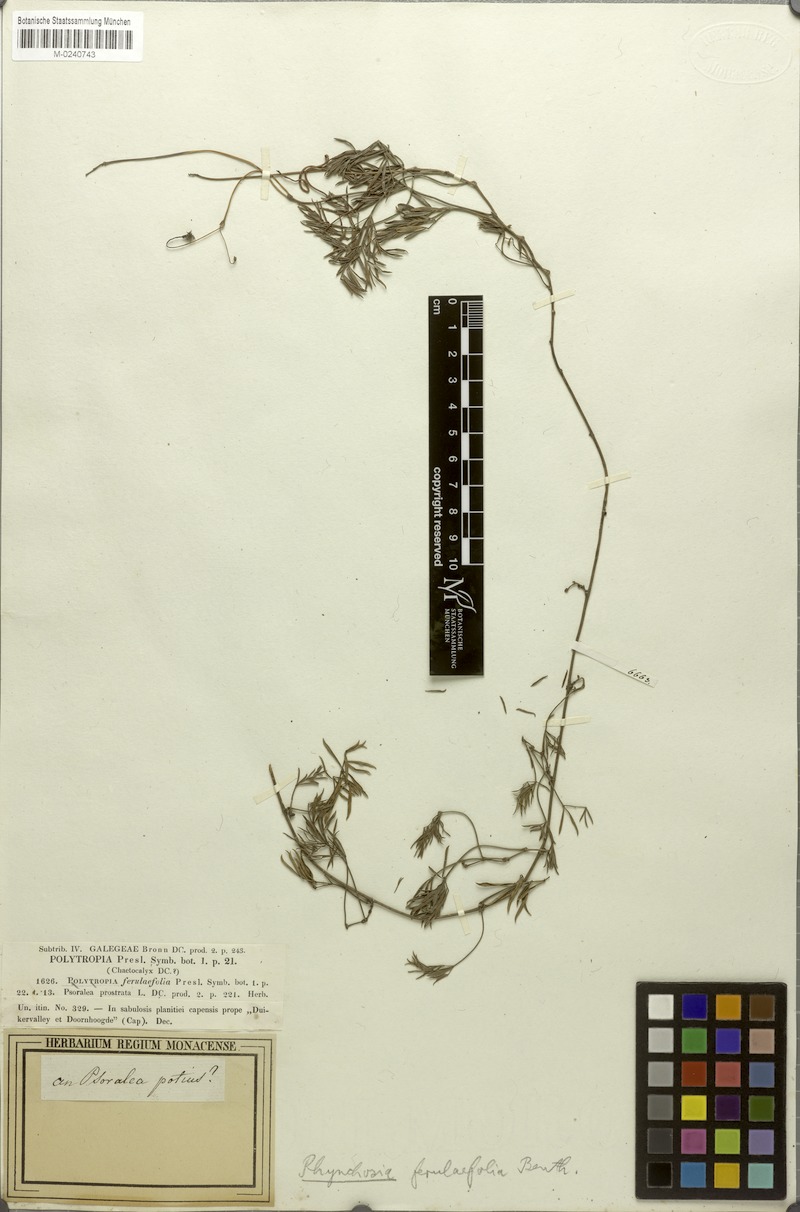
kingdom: Plantae
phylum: Tracheophyta
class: Magnoliopsida
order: Fabales
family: Fabaceae
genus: Rhynchosia
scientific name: Rhynchosia ferulifolia
